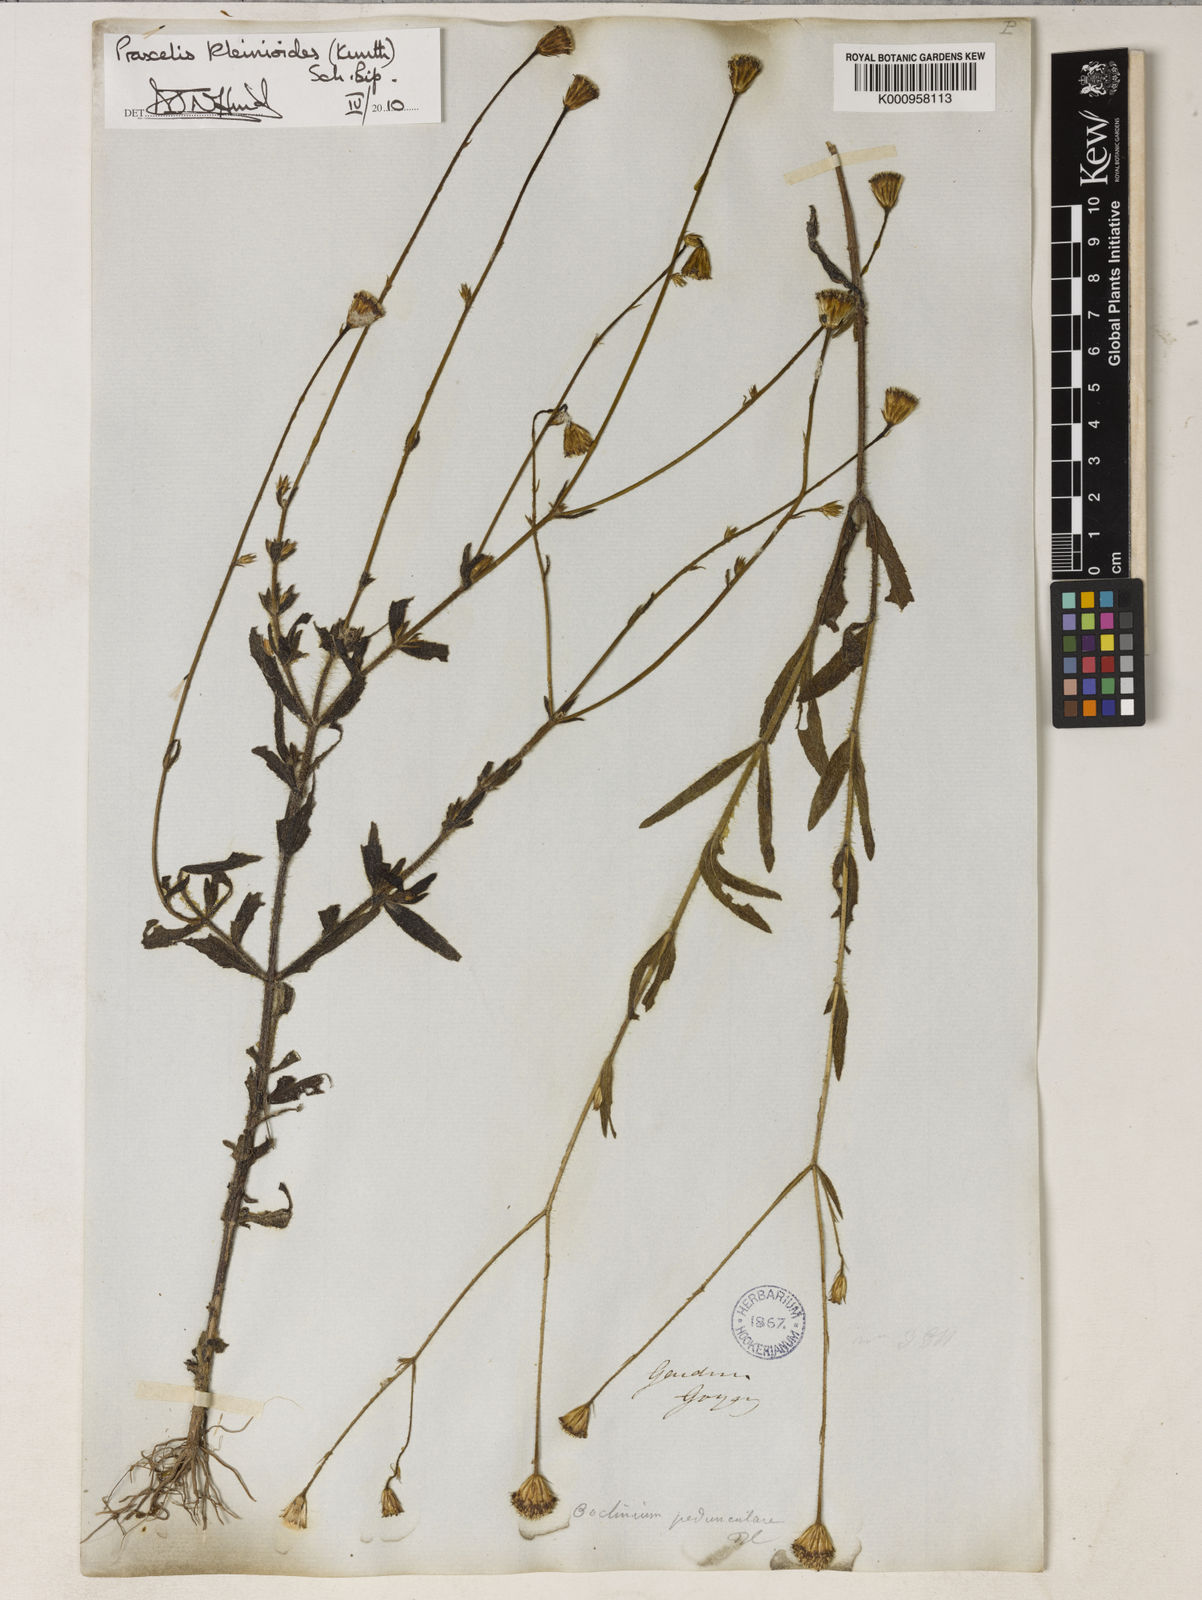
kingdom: Plantae
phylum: Tracheophyta
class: Magnoliopsida
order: Asterales
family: Asteraceae
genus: Praxelis
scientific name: Praxelis kleinioides
